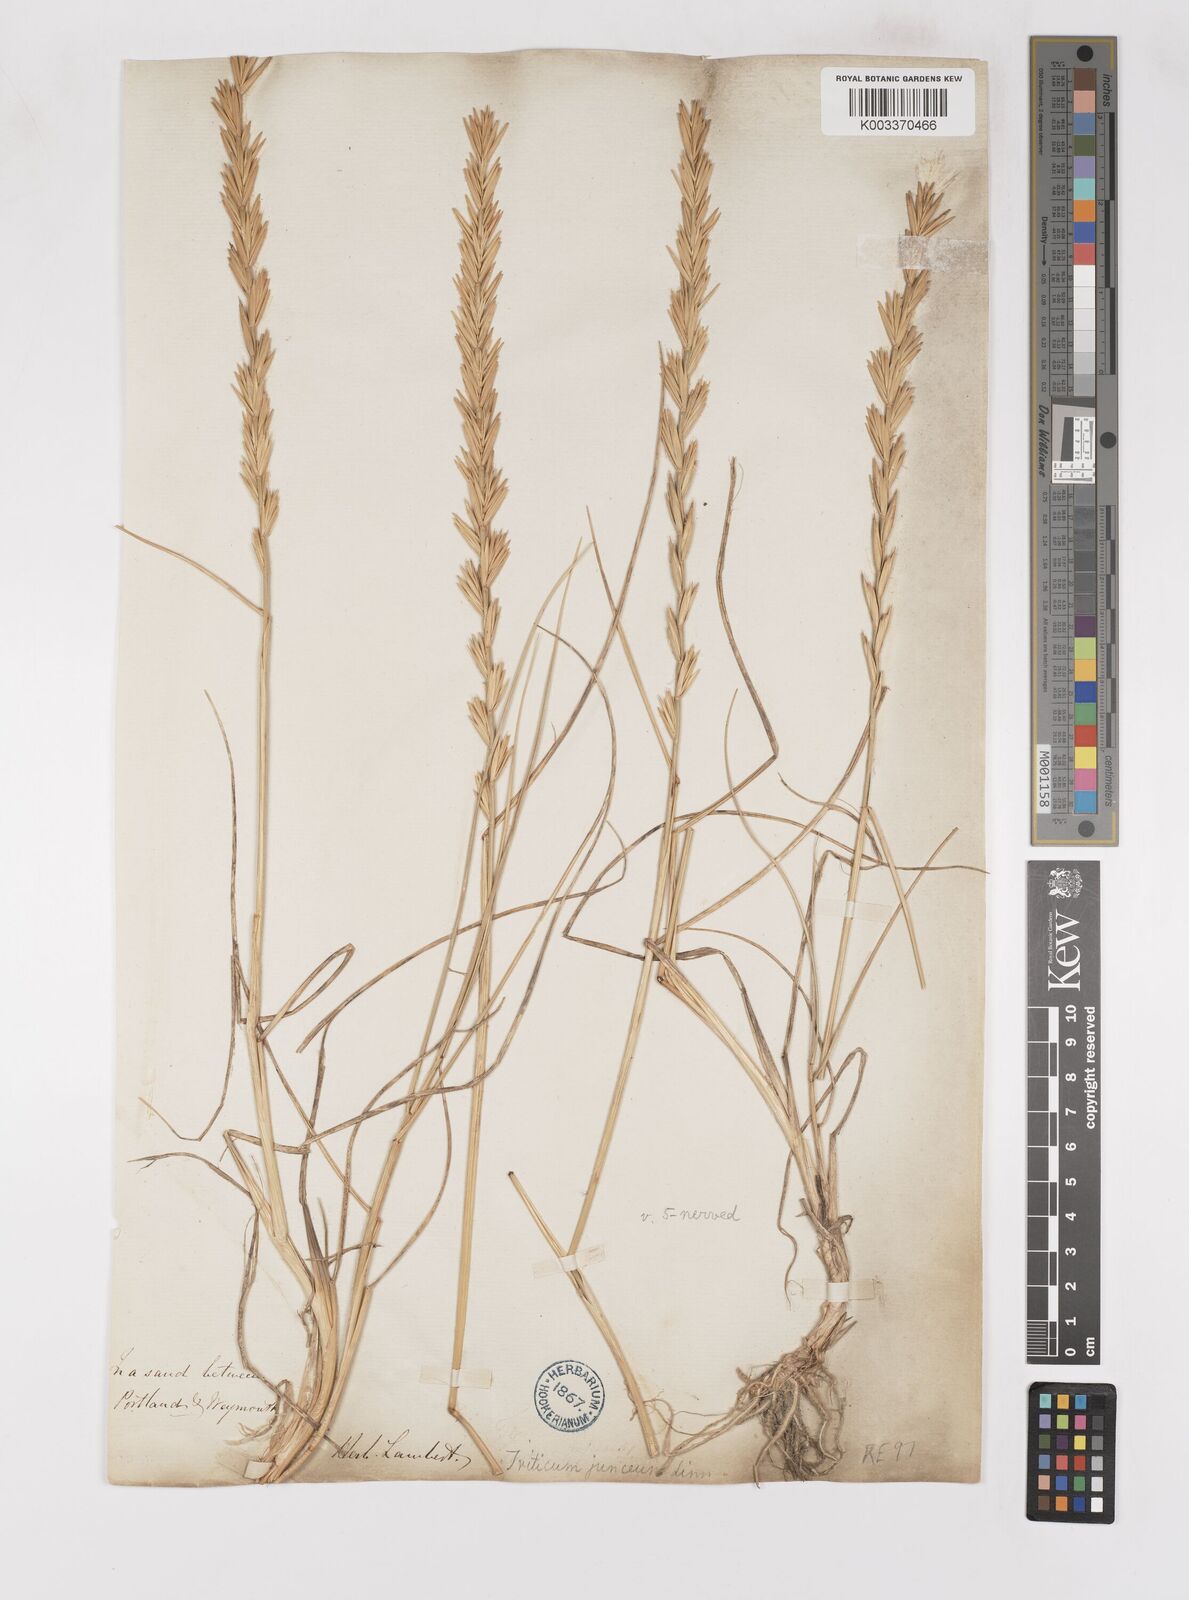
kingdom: Plantae
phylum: Tracheophyta
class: Liliopsida
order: Poales
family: Poaceae
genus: Thinoelymus
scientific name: Thinoelymus obtusiusculus
